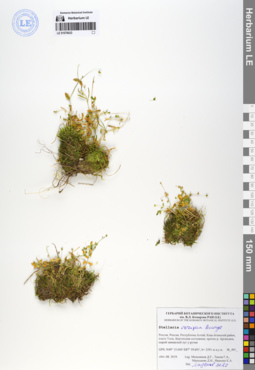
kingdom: Plantae
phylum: Tracheophyta
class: Magnoliopsida
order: Caryophyllales
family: Caryophyllaceae
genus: Stellaria
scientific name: Stellaria irrigua
